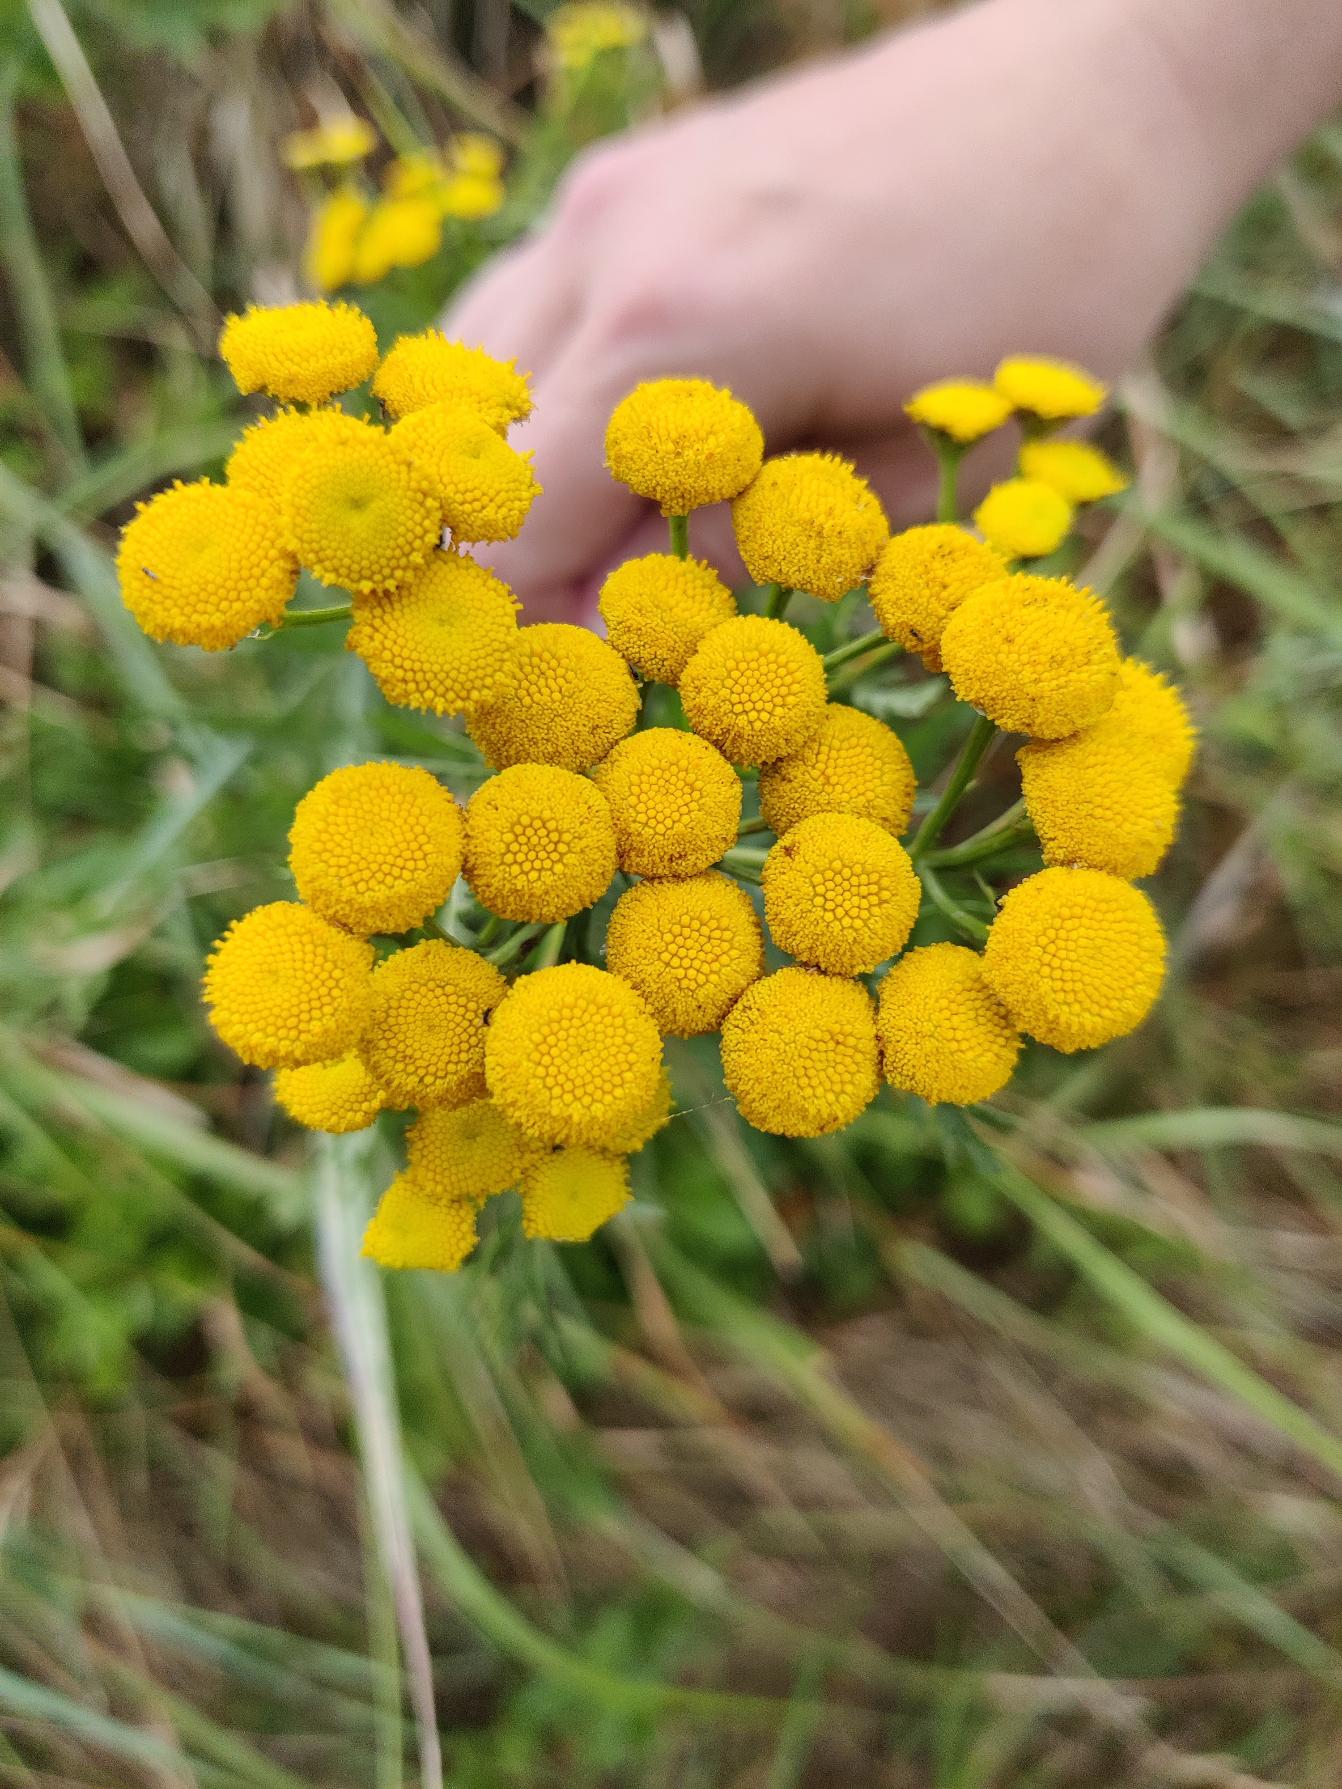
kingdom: Plantae
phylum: Tracheophyta
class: Magnoliopsida
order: Asterales
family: Asteraceae
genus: Tanacetum
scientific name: Tanacetum vulgare
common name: Rejnfan
